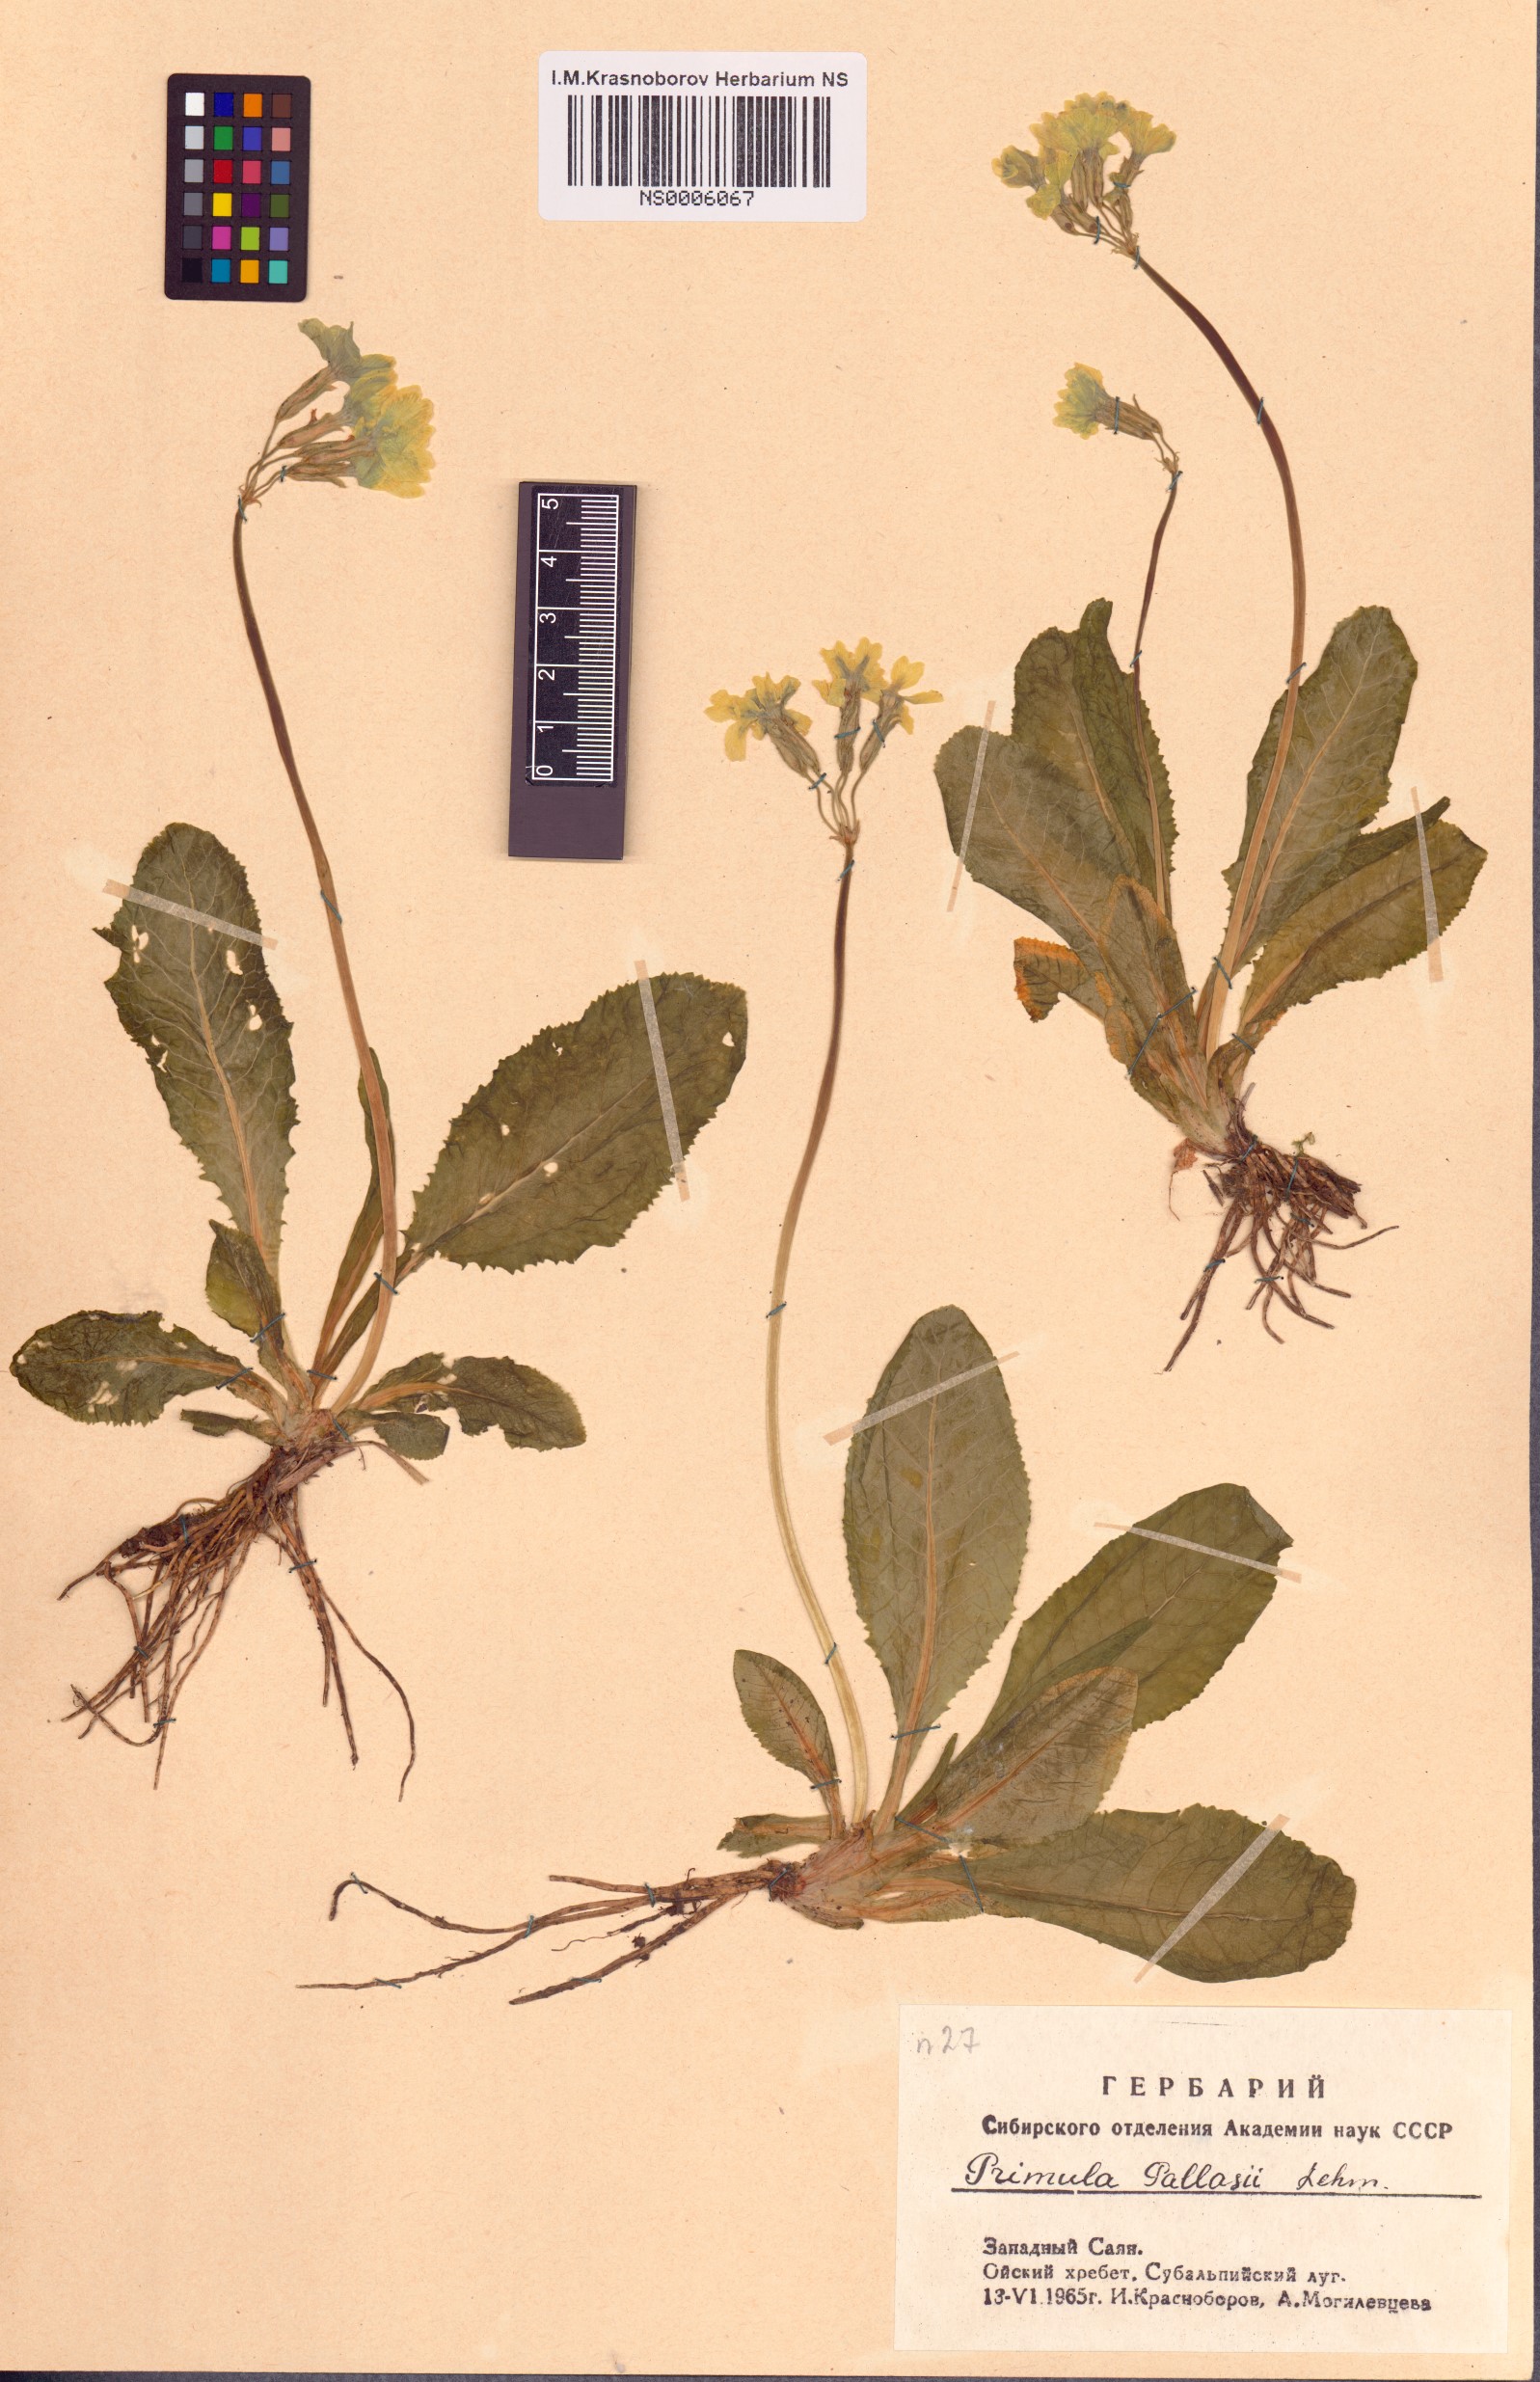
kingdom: Plantae
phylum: Tracheophyta
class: Magnoliopsida
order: Ericales
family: Primulaceae
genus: Primula
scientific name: Primula elatior
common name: Oxlip
